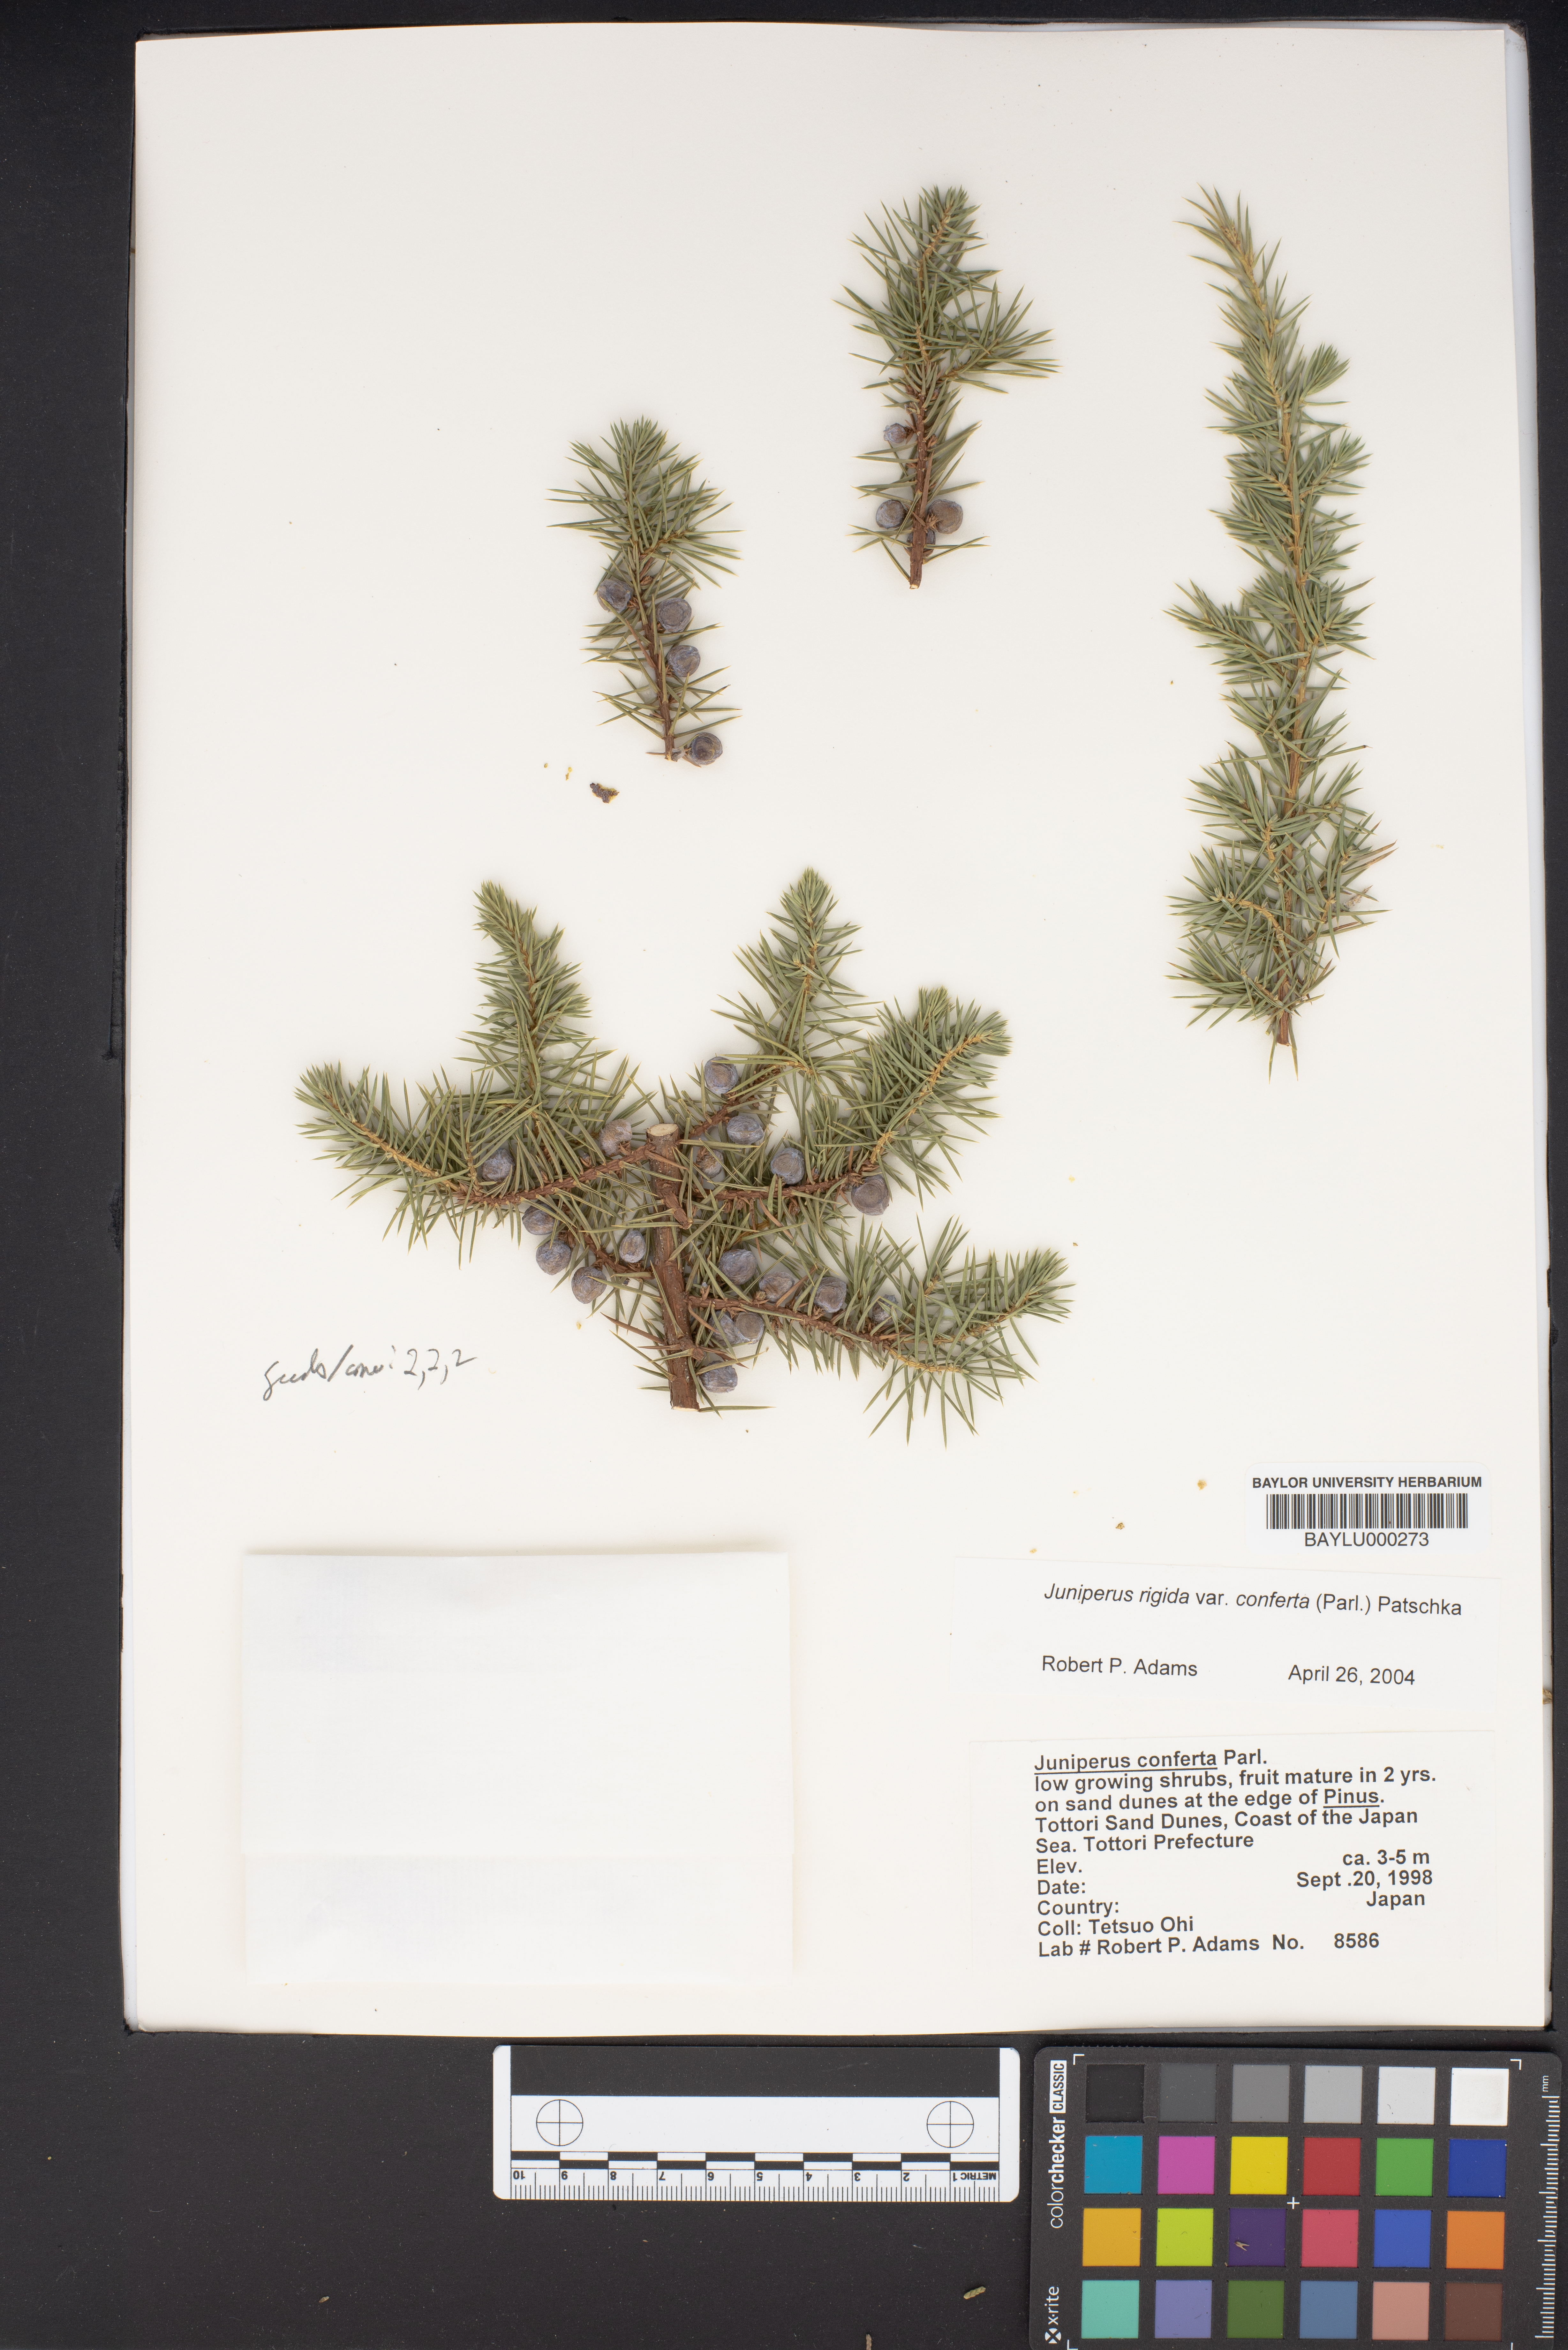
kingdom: Plantae
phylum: Tracheophyta
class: Pinopsida
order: Pinales
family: Cupressaceae
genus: Juniperus
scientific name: Juniperus rigida
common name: Needle juniper
